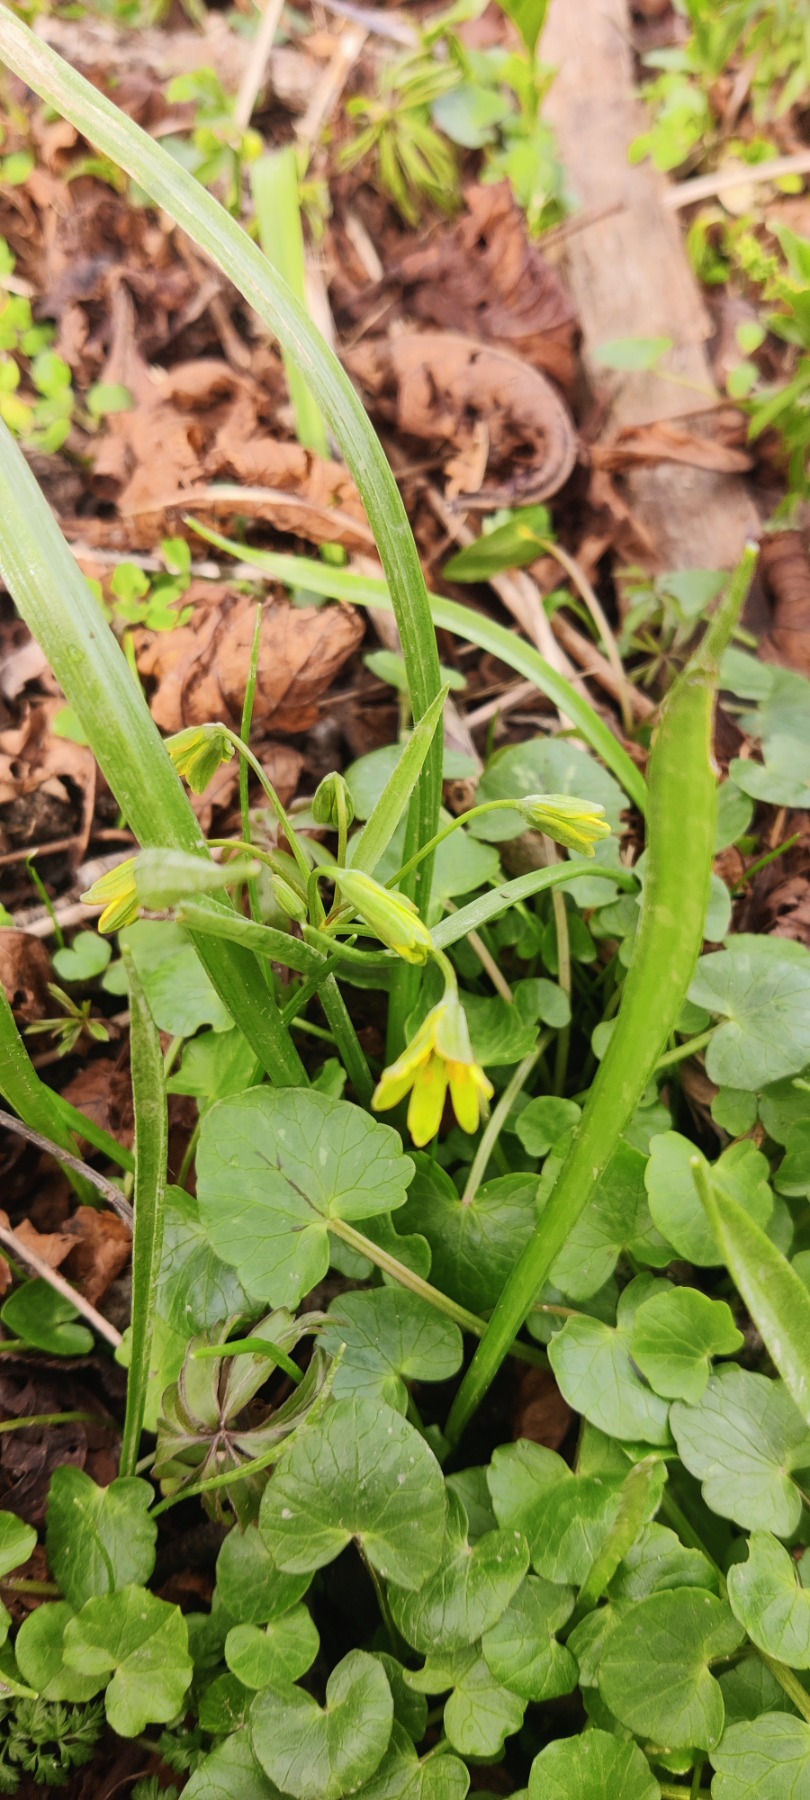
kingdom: Plantae
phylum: Tracheophyta
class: Liliopsida
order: Liliales
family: Liliaceae
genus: Gagea
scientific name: Gagea lutea
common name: Almindelig guldstjerne
